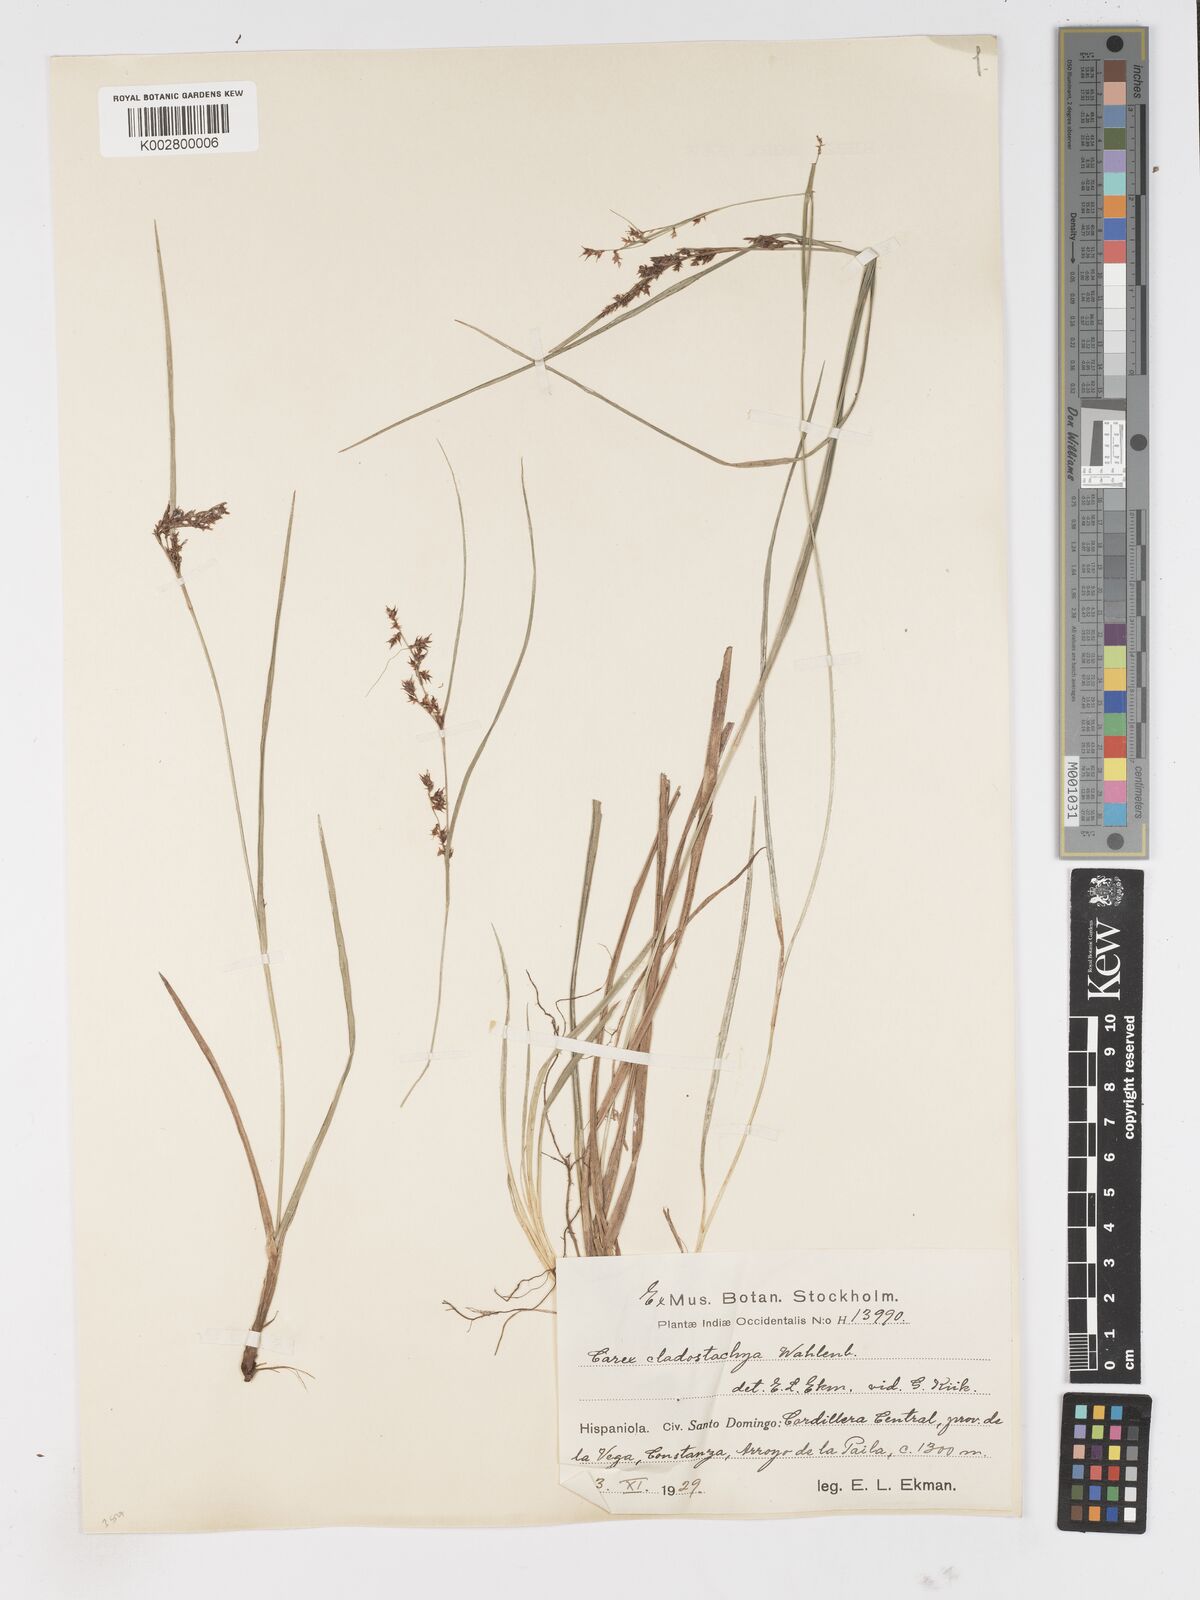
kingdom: Plantae
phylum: Tracheophyta
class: Liliopsida
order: Poales
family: Cyperaceae
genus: Carex
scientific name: Carex polystachya
